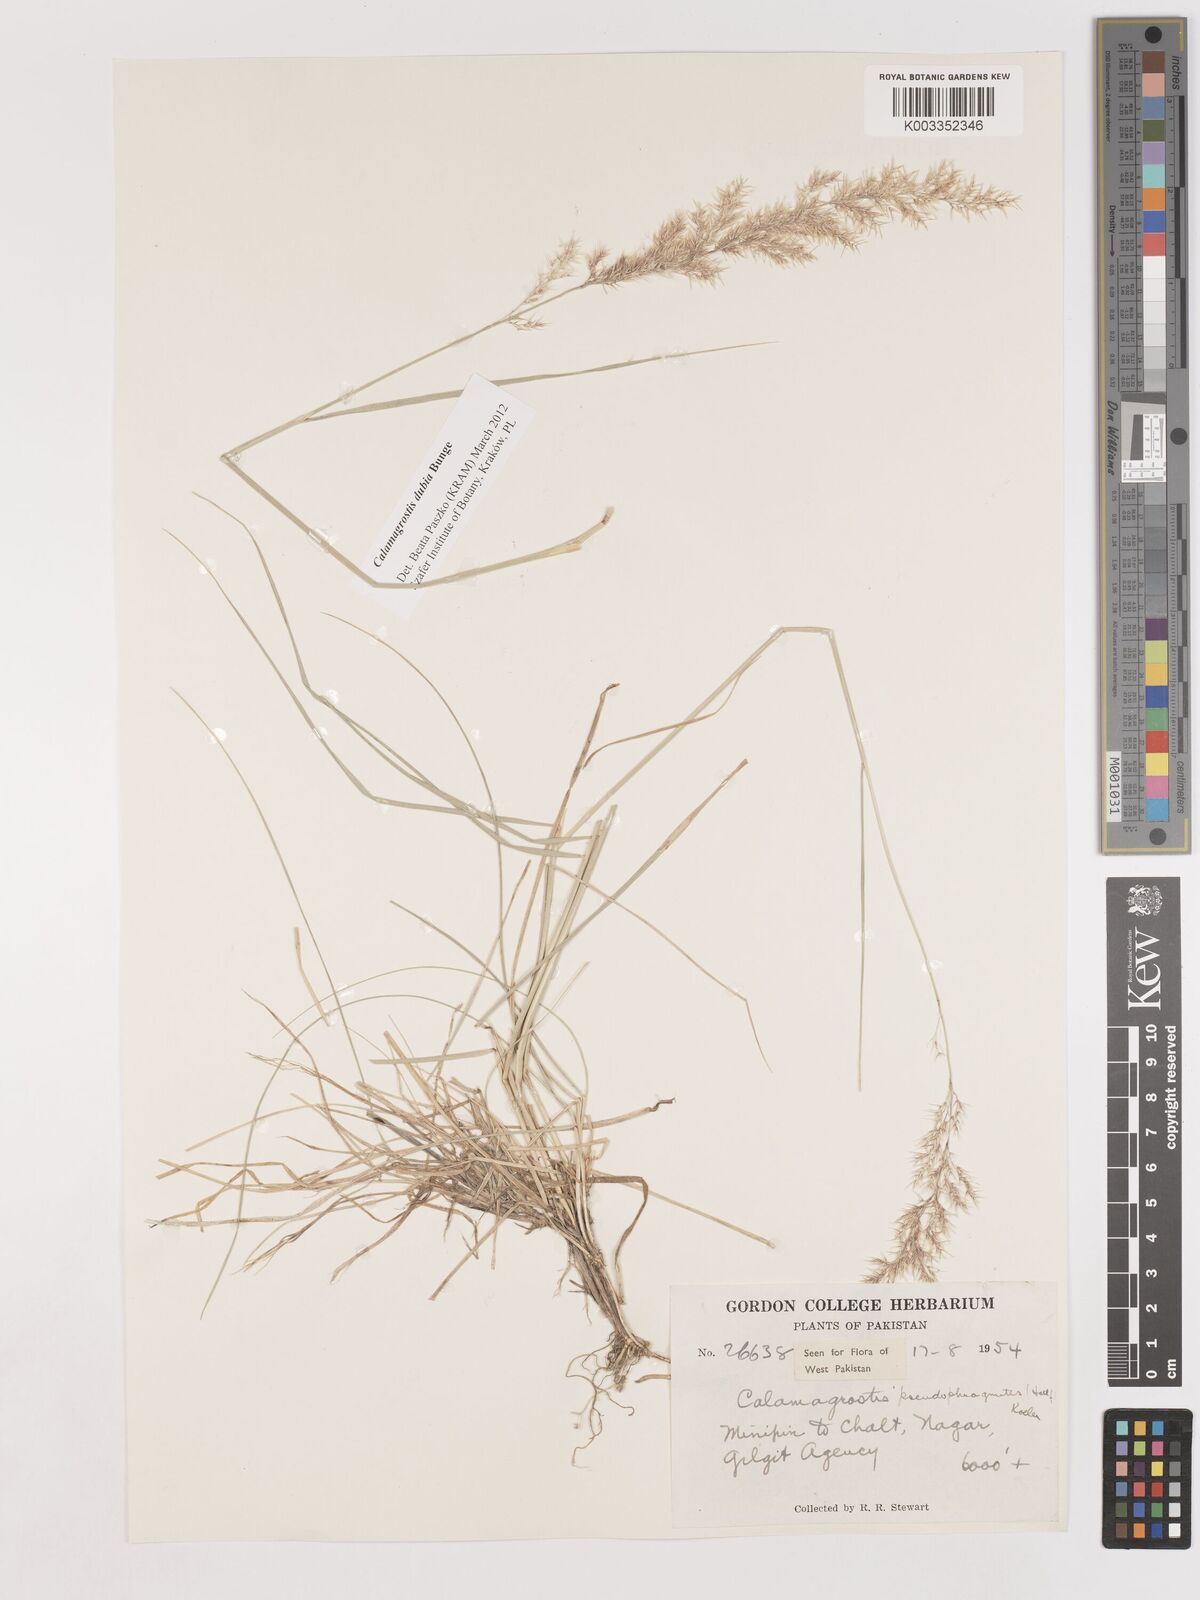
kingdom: Plantae
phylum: Tracheophyta
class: Liliopsida
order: Poales
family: Poaceae
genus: Calamagrostis
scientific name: Calamagrostis pseudophragmites
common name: Coastal small-reed
